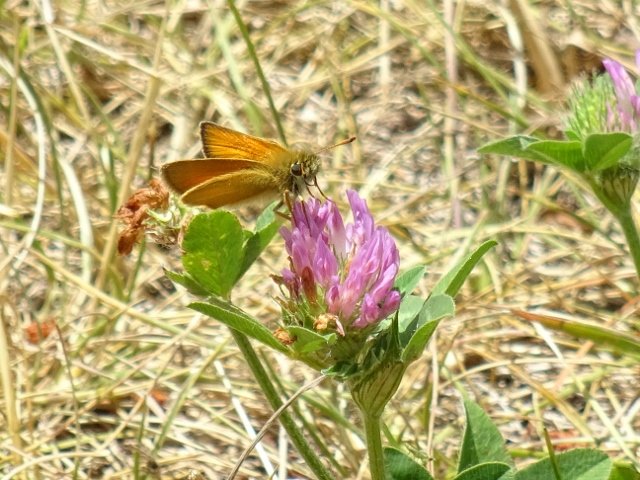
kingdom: Animalia
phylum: Arthropoda
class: Insecta
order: Lepidoptera
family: Hesperiidae
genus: Thymelicus
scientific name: Thymelicus lineola
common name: European Skipper
